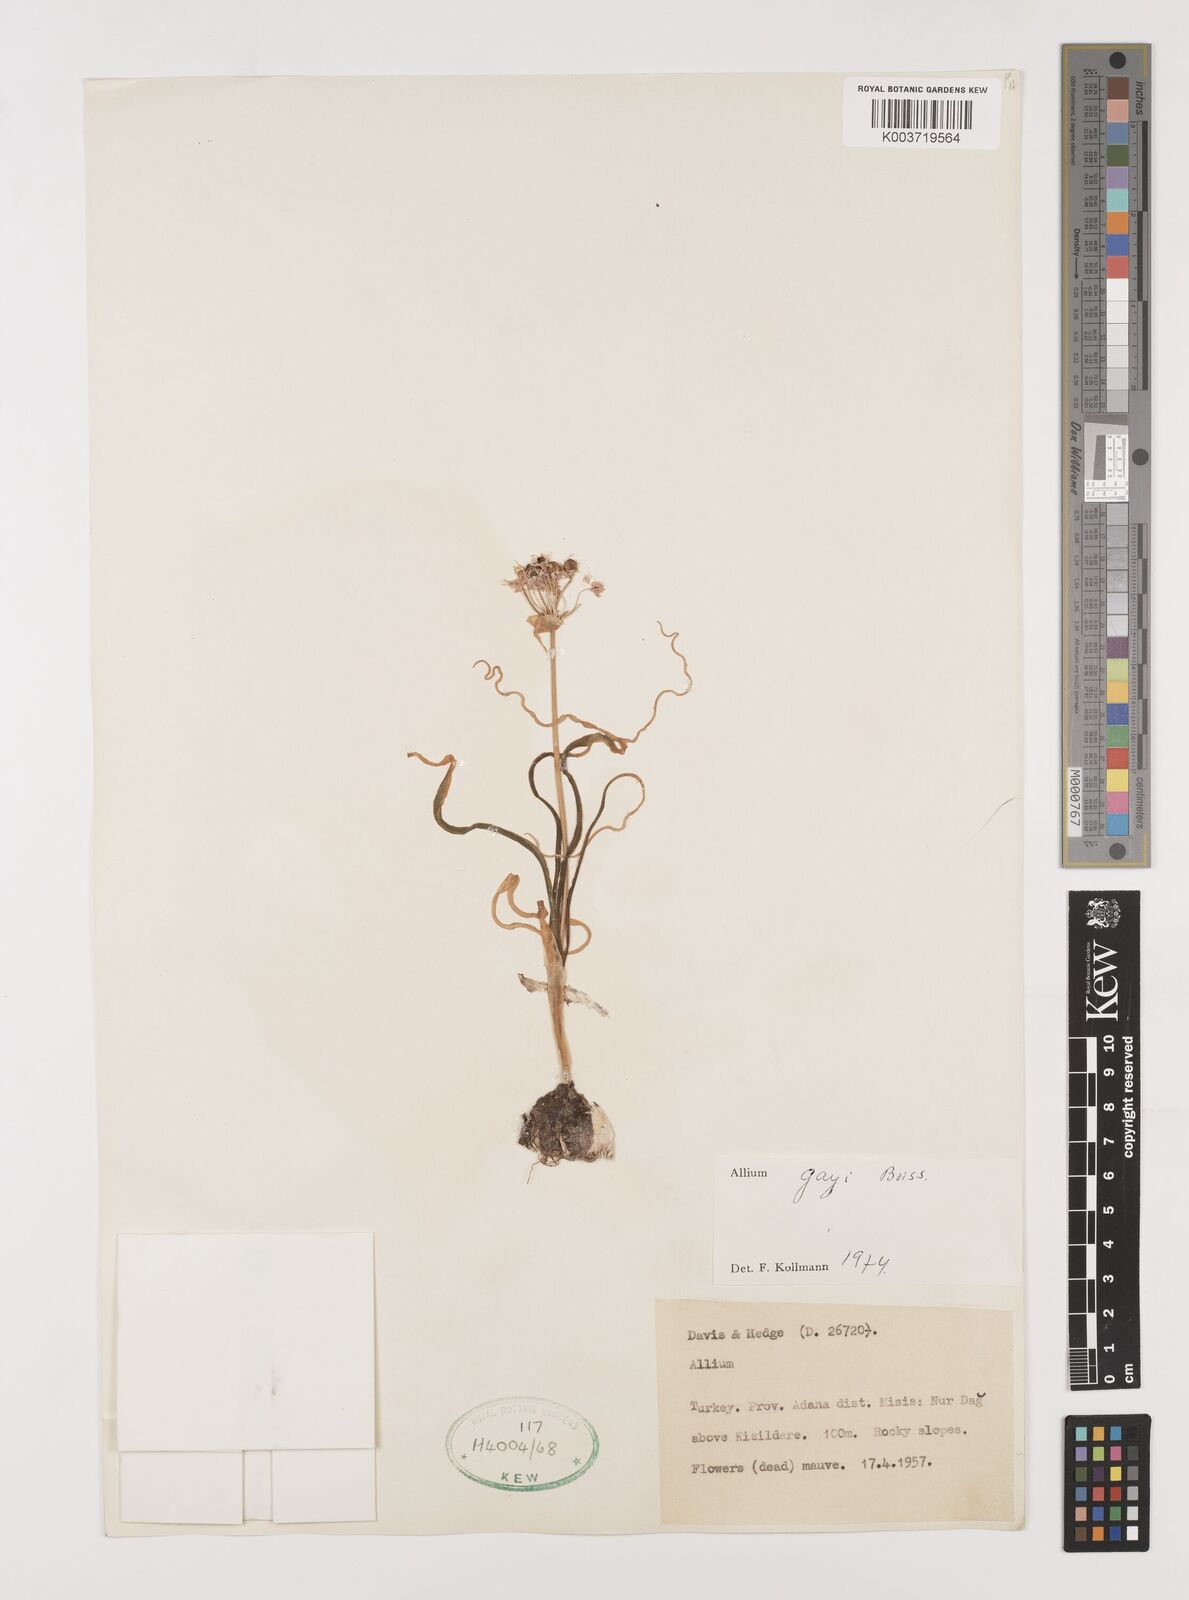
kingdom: Plantae
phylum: Tracheophyta
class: Liliopsida
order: Asparagales
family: Amaryllidaceae
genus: Allium
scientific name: Allium orientale
